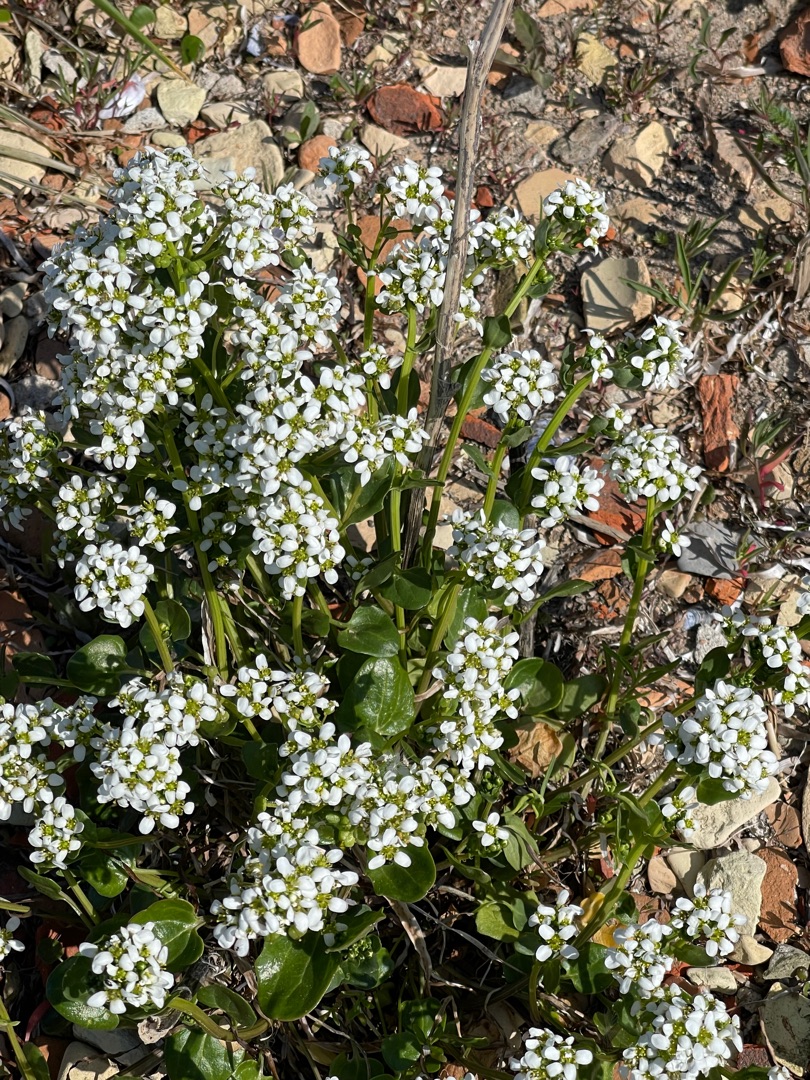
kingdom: Plantae
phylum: Tracheophyta
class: Magnoliopsida
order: Brassicales
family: Brassicaceae
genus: Cochlearia
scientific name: Cochlearia officinalis
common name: Læge-kokleare
